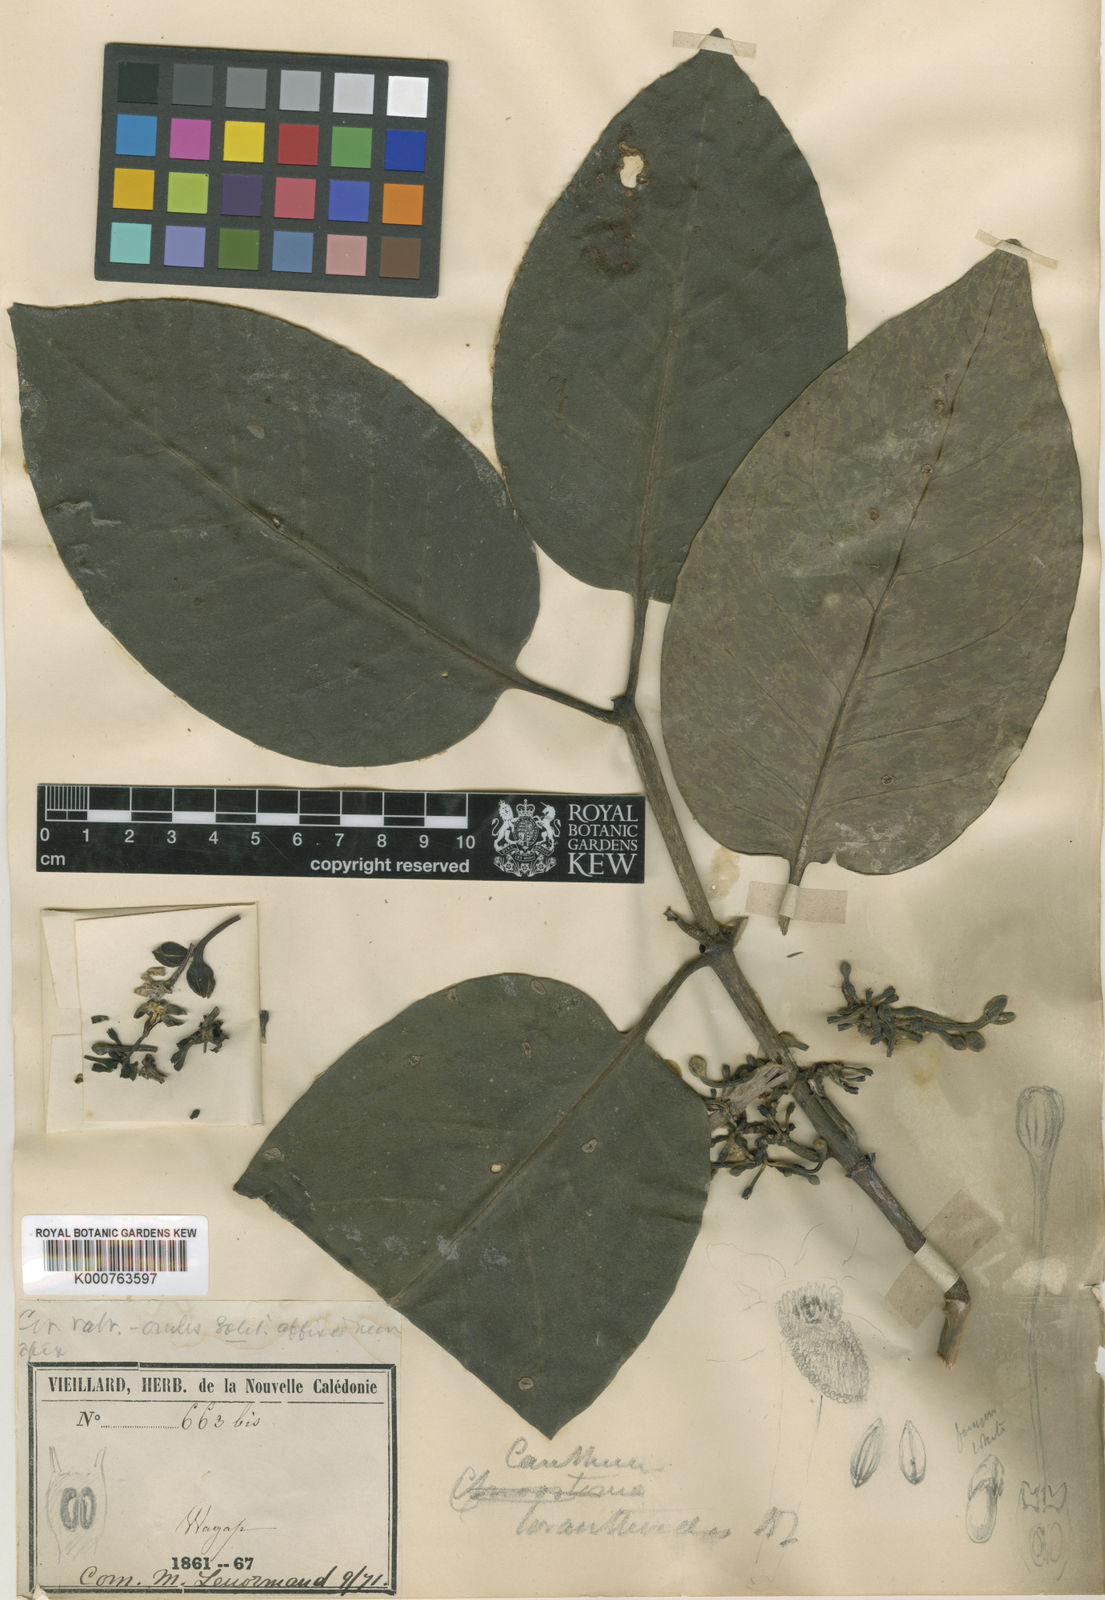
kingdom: Plantae
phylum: Tracheophyta
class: Magnoliopsida
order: Gentianales
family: Rubiaceae
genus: Cyclophyllum
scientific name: Cyclophyllum henriettiae
